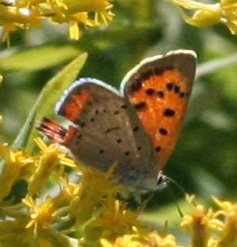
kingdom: Animalia
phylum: Arthropoda
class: Insecta
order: Lepidoptera
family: Sesiidae
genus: Sesia
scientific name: Sesia Lycaena hyllus
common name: Bronze Copper
